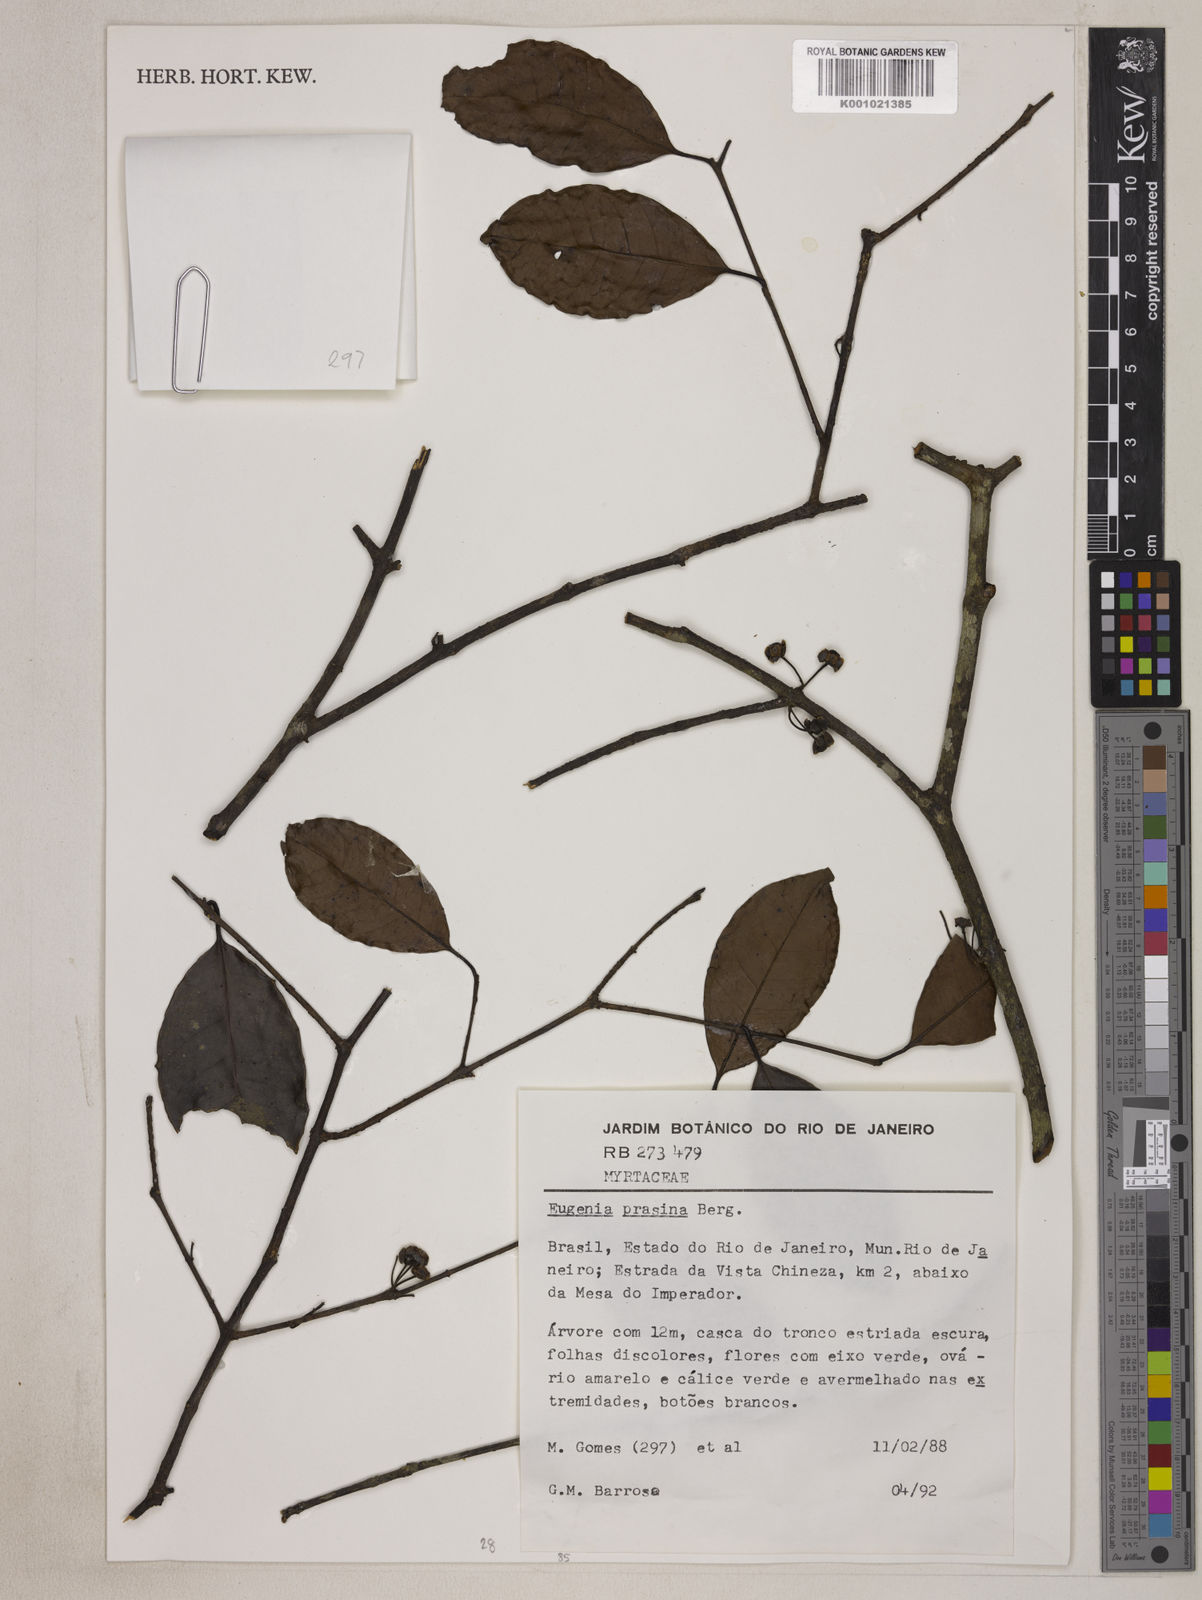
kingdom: Plantae
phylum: Tracheophyta
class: Magnoliopsida
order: Myrtales
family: Myrtaceae
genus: Eugenia
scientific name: Eugenia prasina
